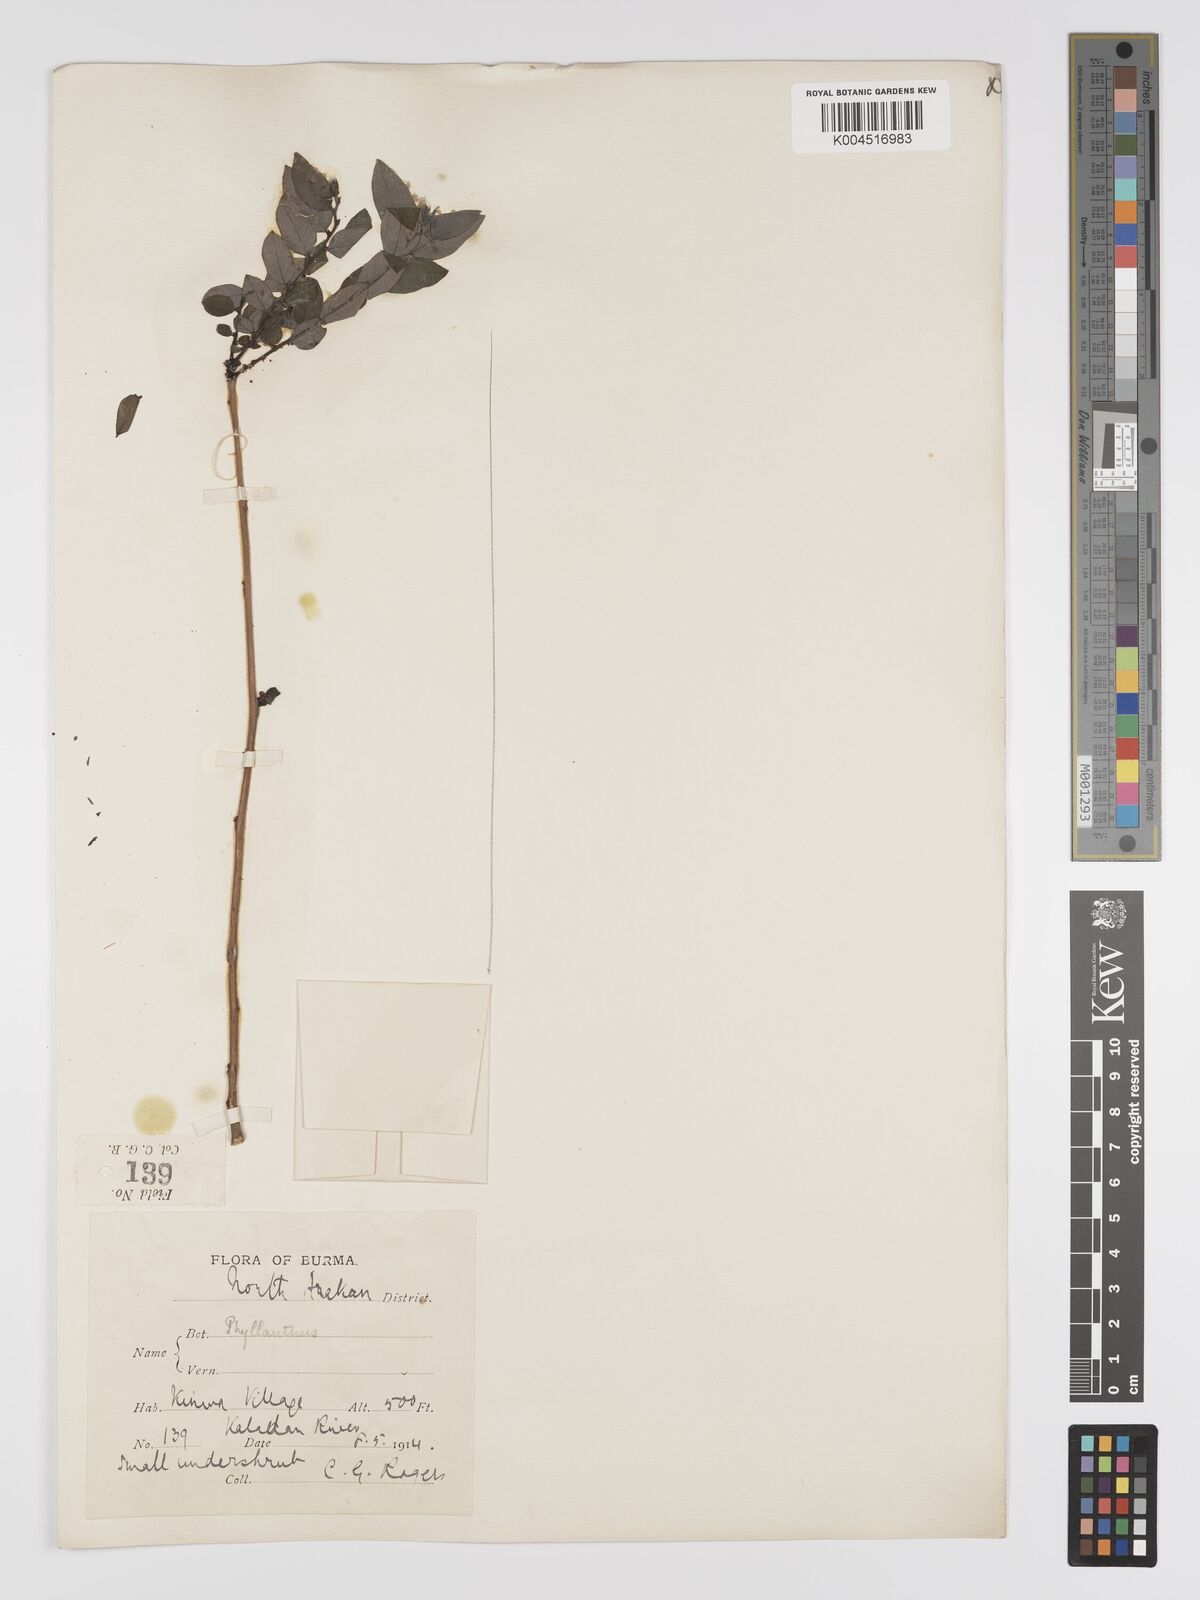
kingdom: Plantae
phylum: Tracheophyta
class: Magnoliopsida
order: Malpighiales
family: Phyllanthaceae
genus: Phyllanthus
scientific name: Phyllanthus pulcher
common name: Dragon-of-the-world
